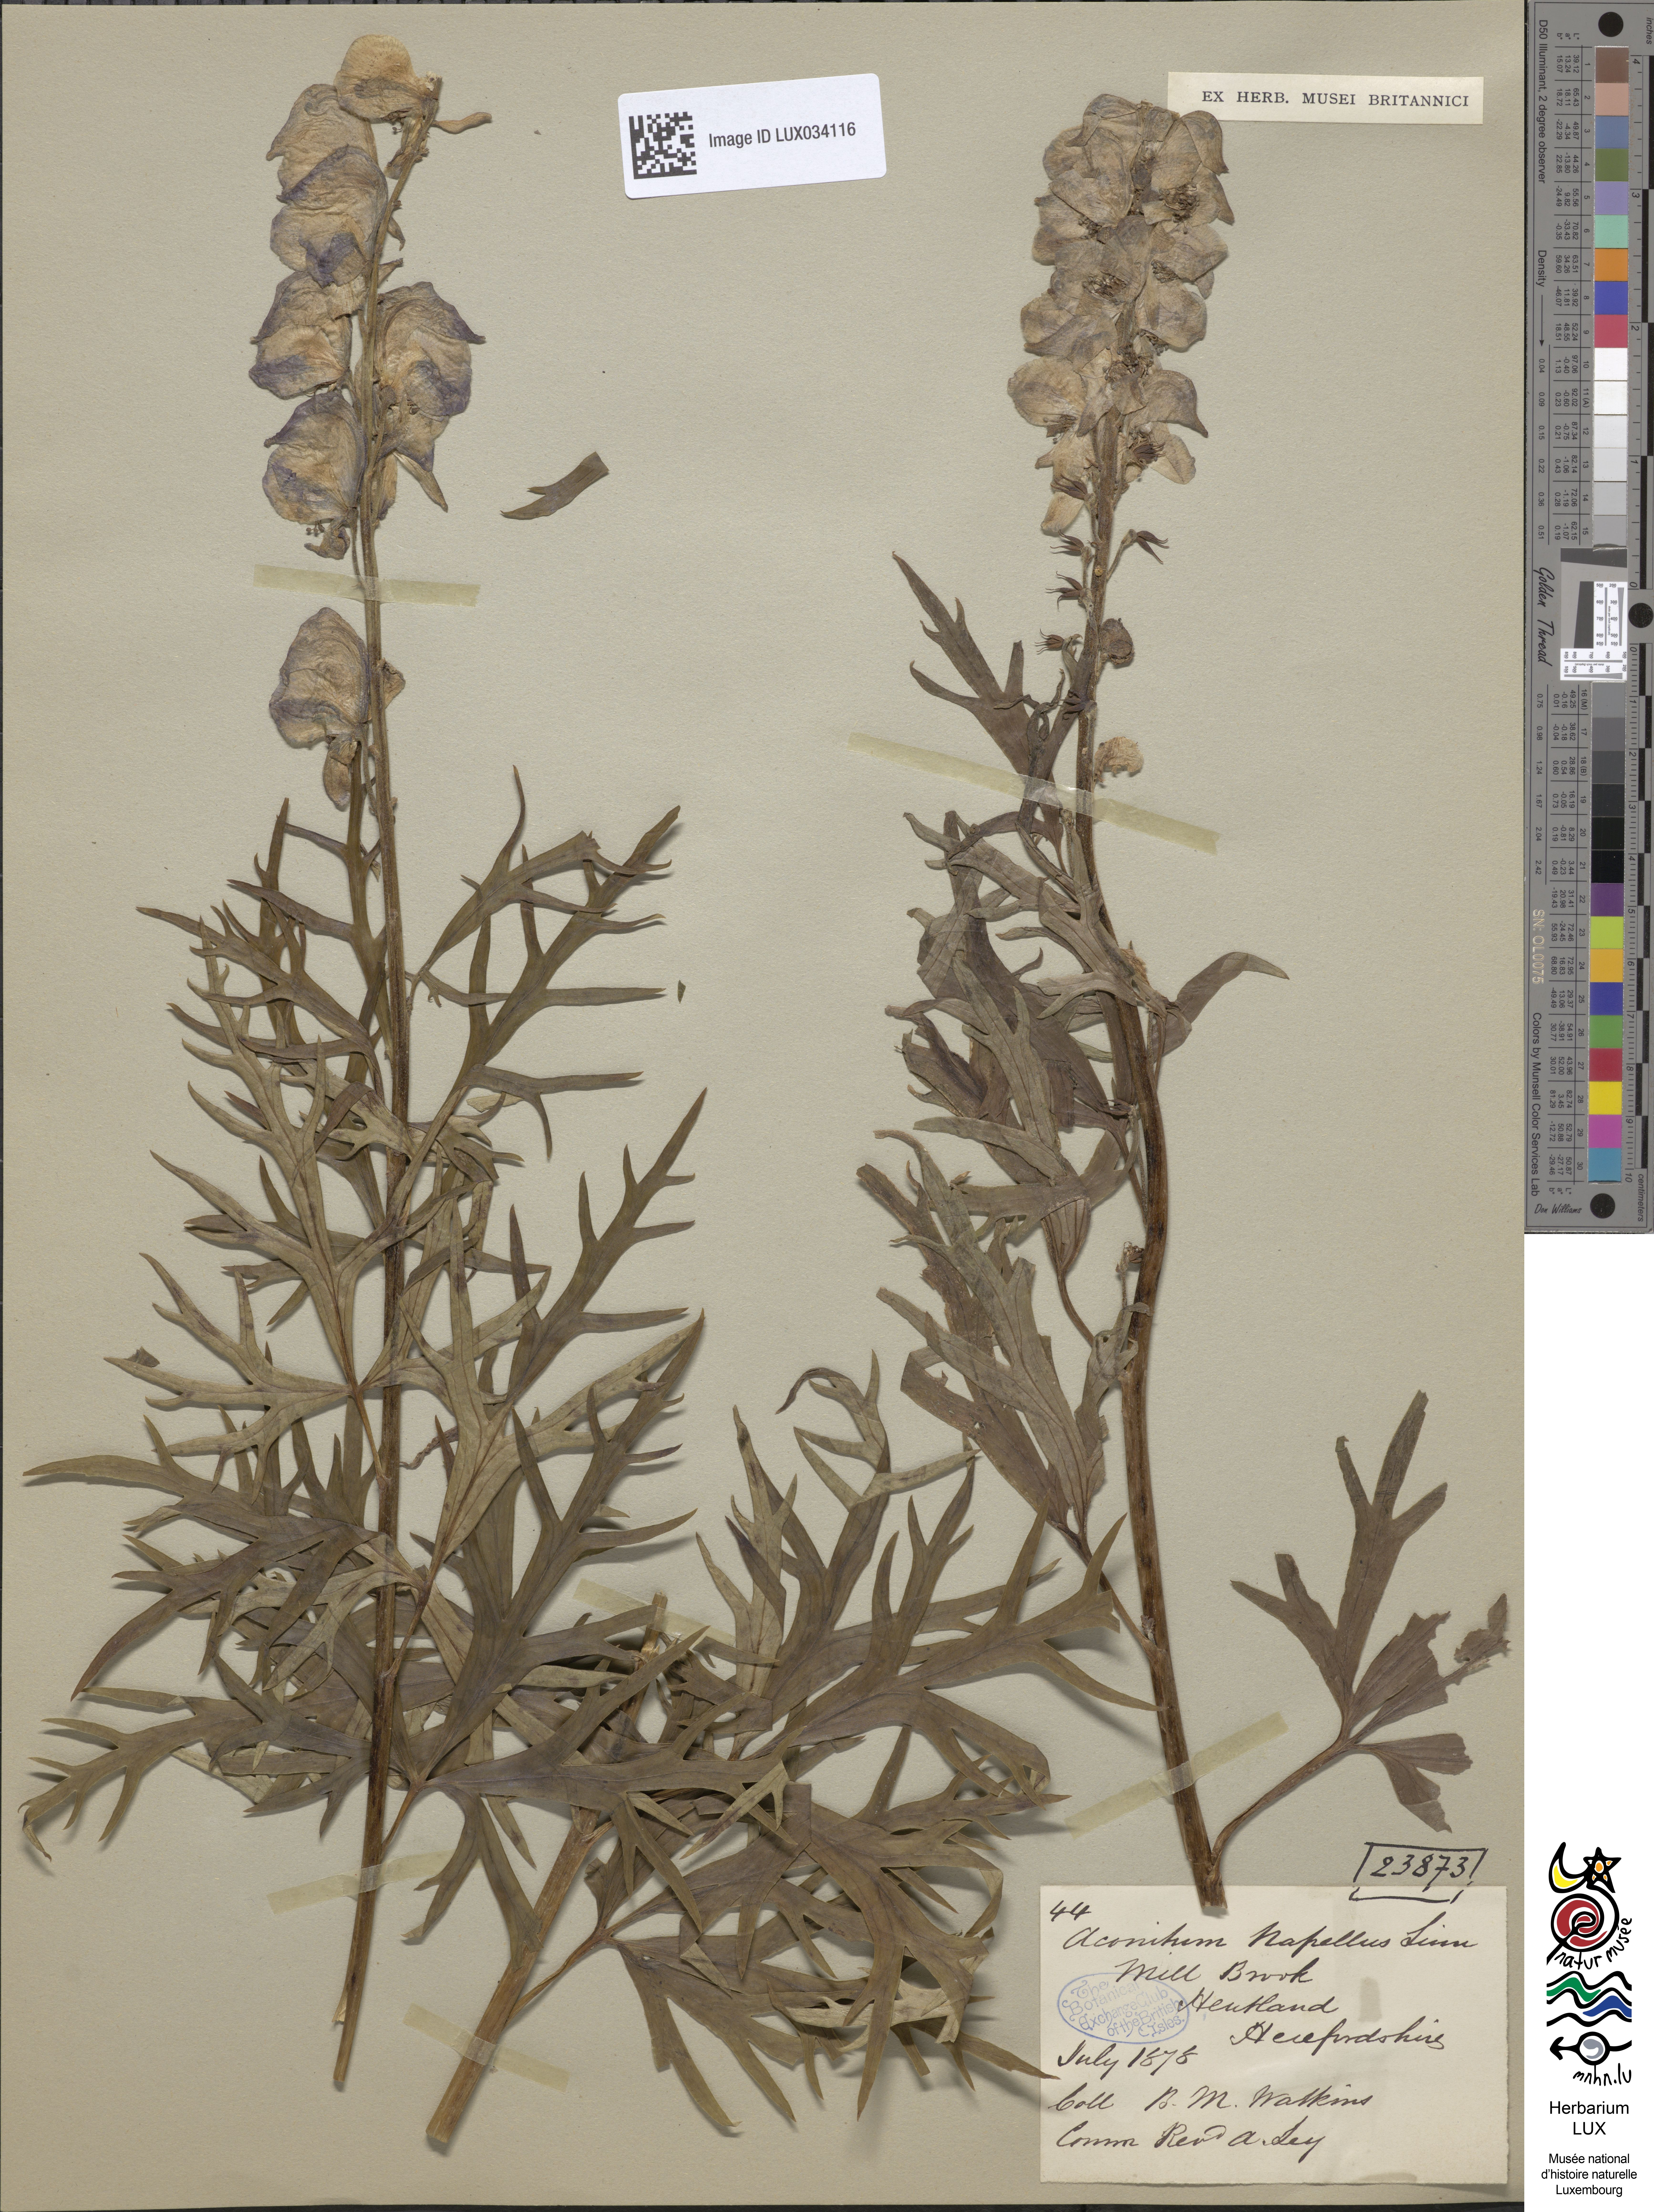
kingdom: Plantae
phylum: Tracheophyta
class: Magnoliopsida
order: Ranunculales
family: Ranunculaceae
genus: Aconitum
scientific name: Aconitum napellus
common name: Garden monkshood
